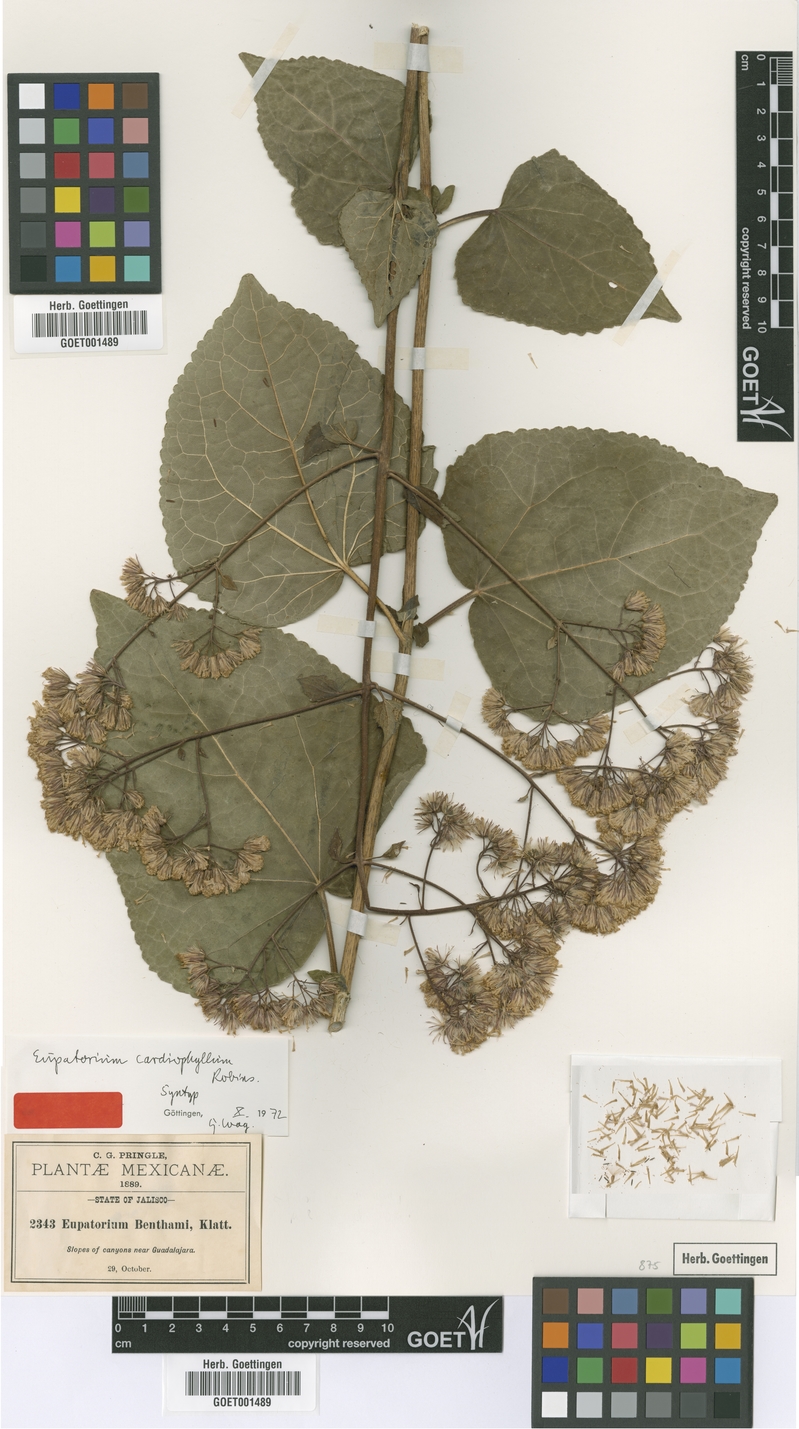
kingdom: Plantae
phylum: Tracheophyta
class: Magnoliopsida
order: Asterales
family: Asteraceae
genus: Ageratina
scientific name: Ageratina cardiophylla
